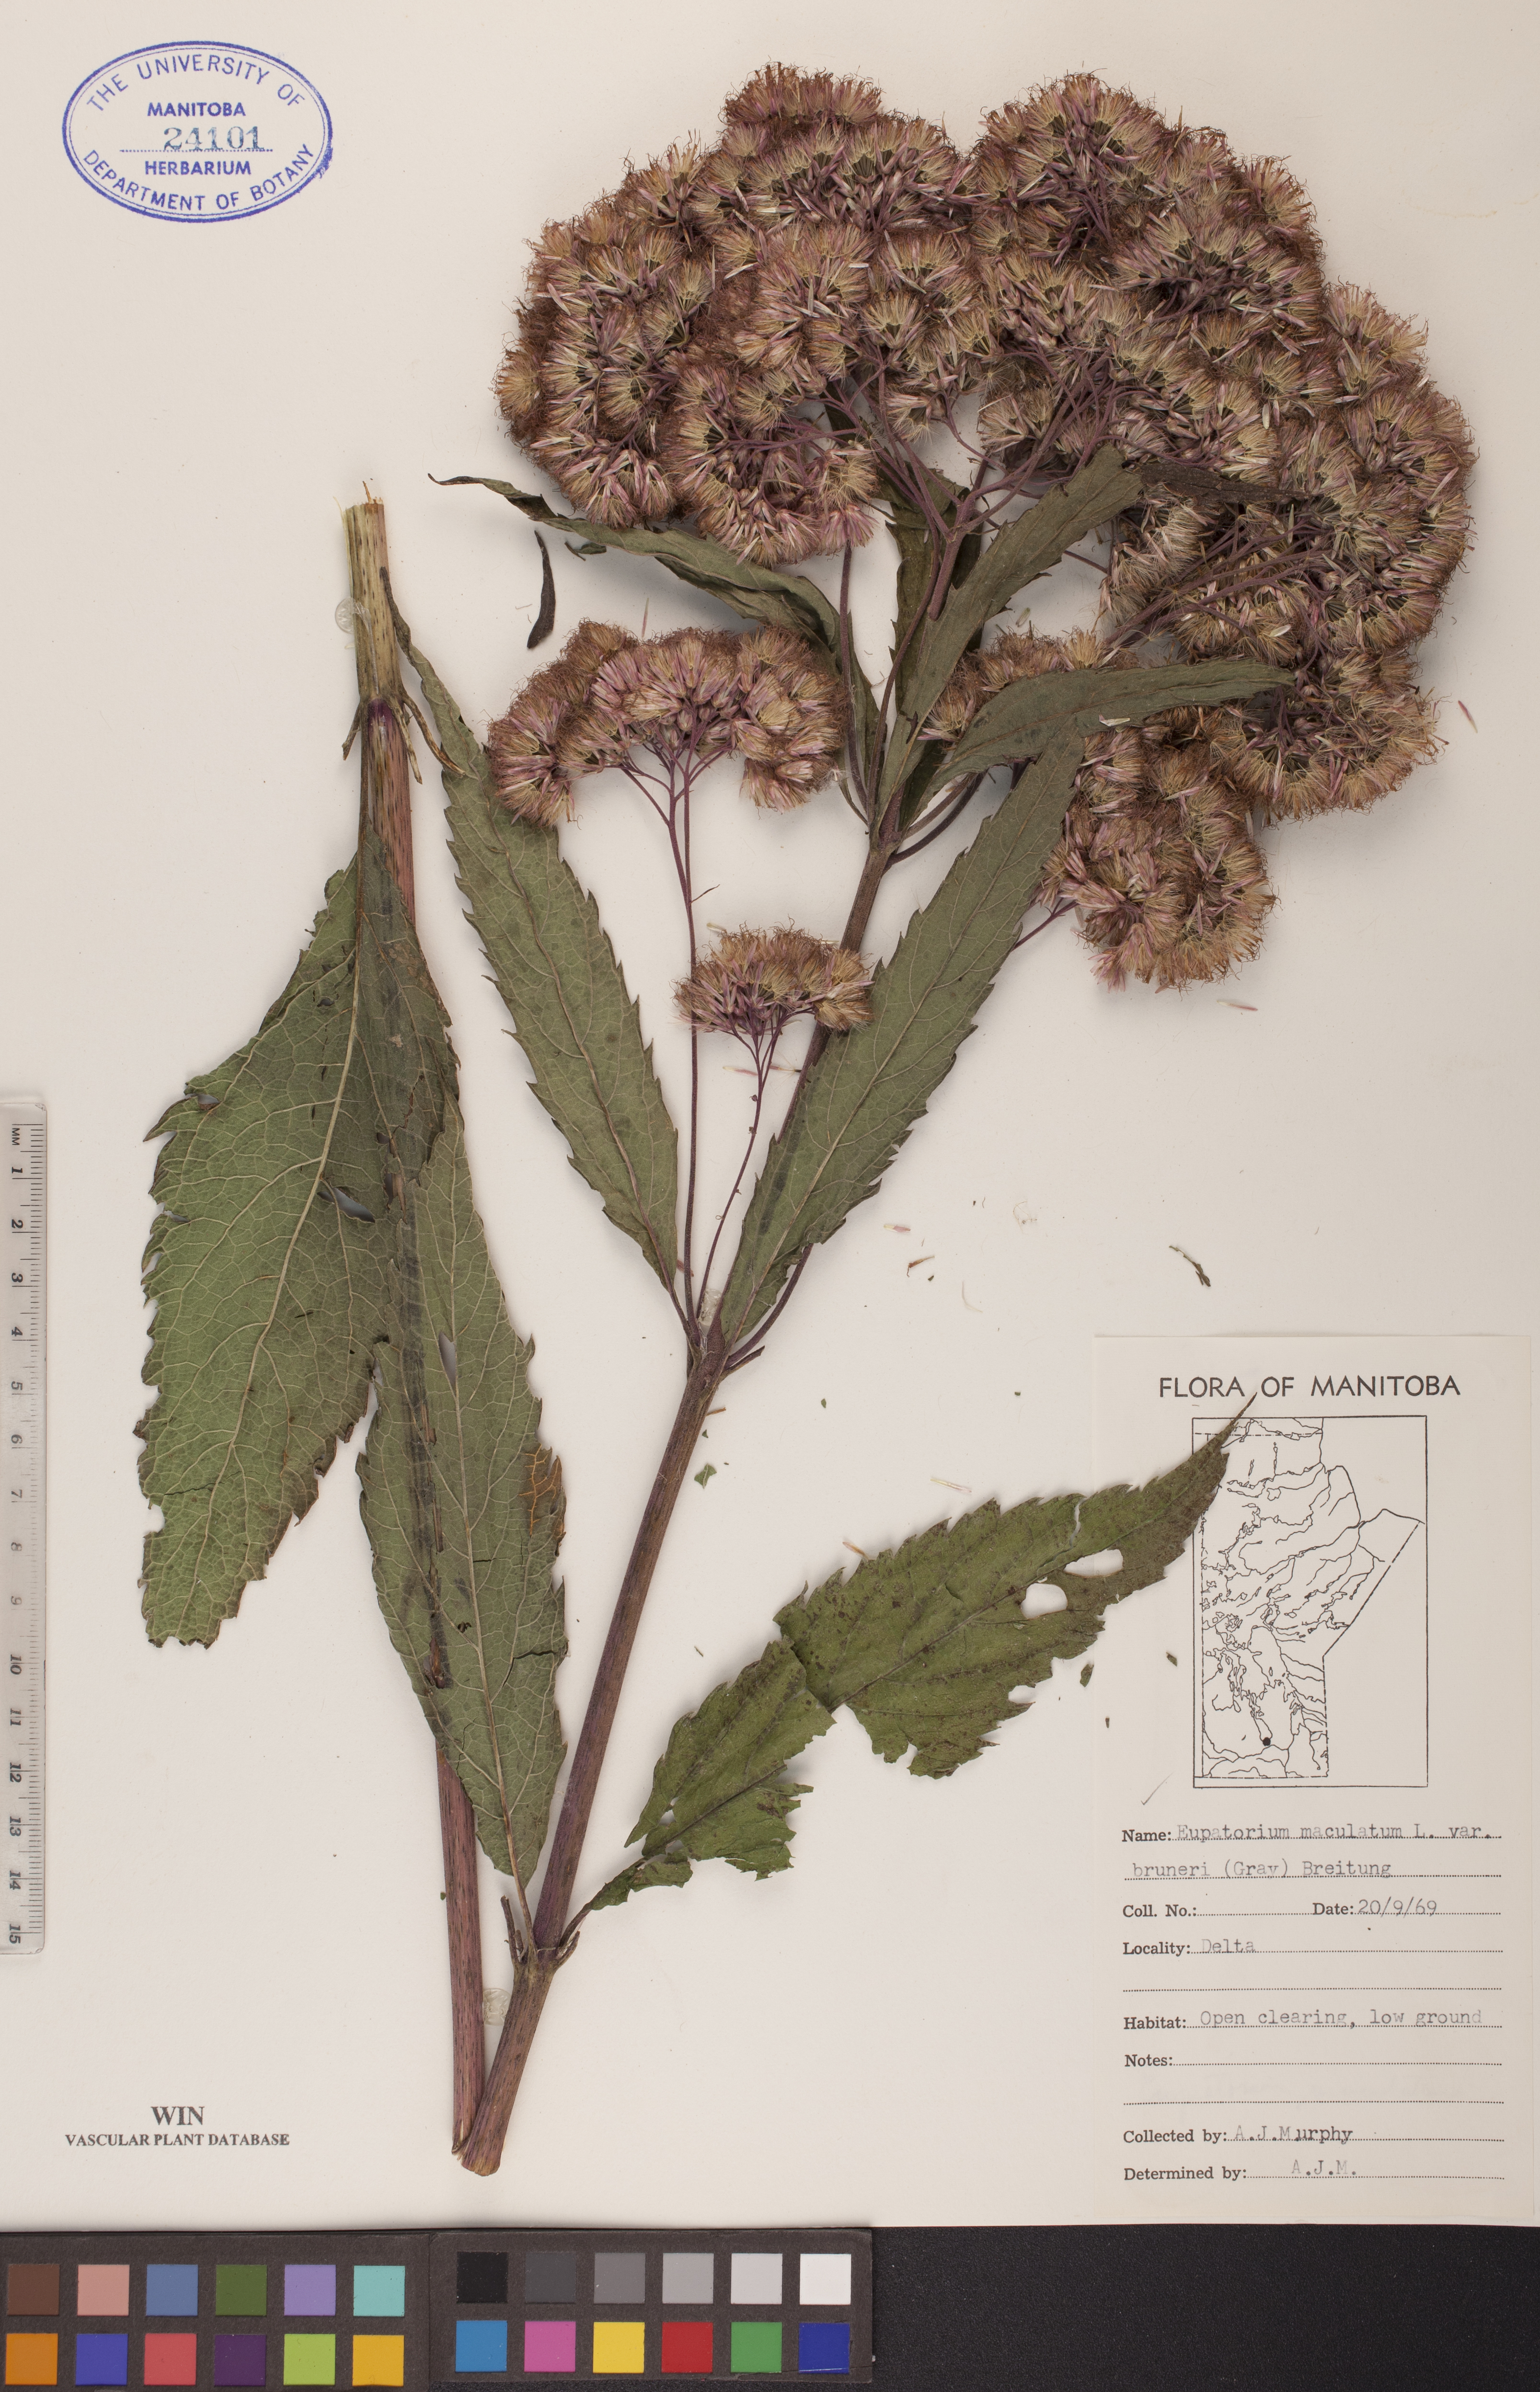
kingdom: Plantae
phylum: Tracheophyta
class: Magnoliopsida
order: Asterales
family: Asteraceae
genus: Eutrochium
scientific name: Eutrochium maculatum
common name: Spotted joe pye weed
